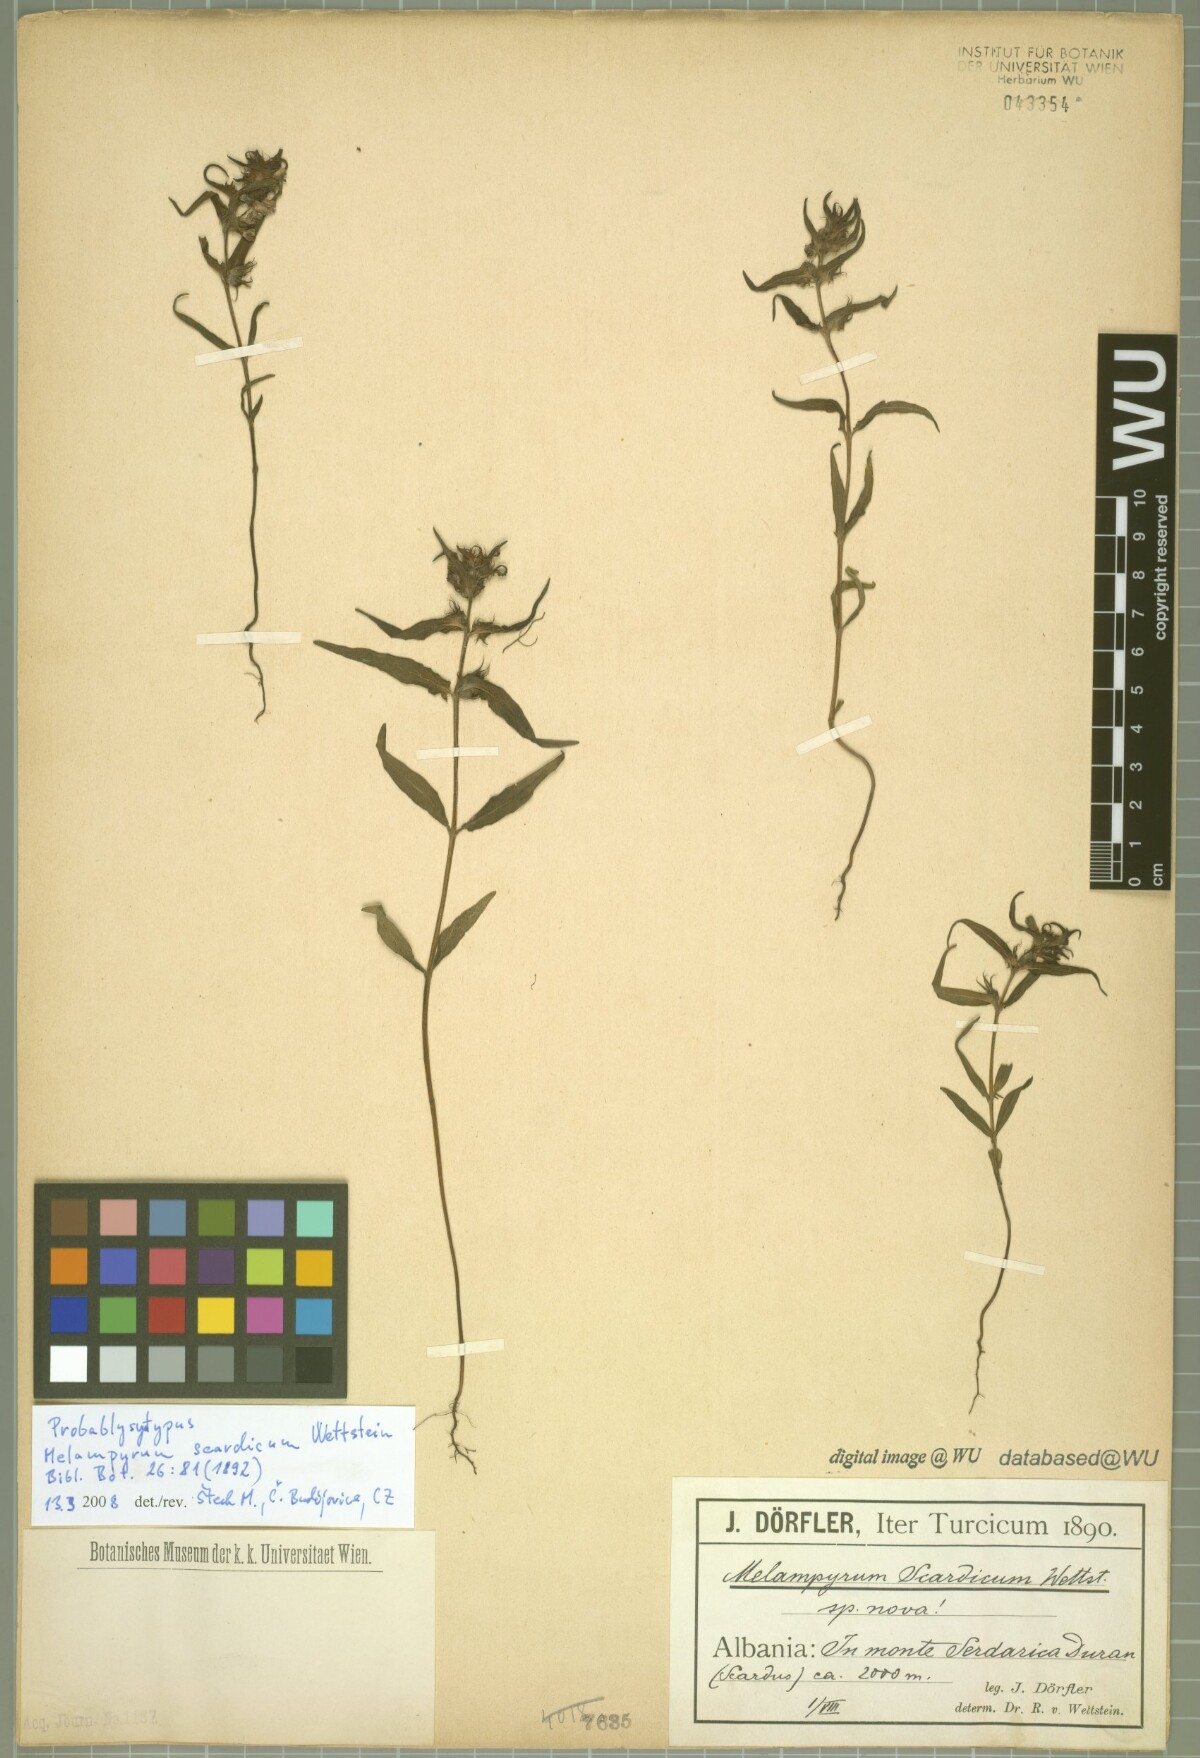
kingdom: Plantae
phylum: Tracheophyta
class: Magnoliopsida
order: Lamiales
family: Orobanchaceae
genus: Melampyrum
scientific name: Melampyrum scardicum
